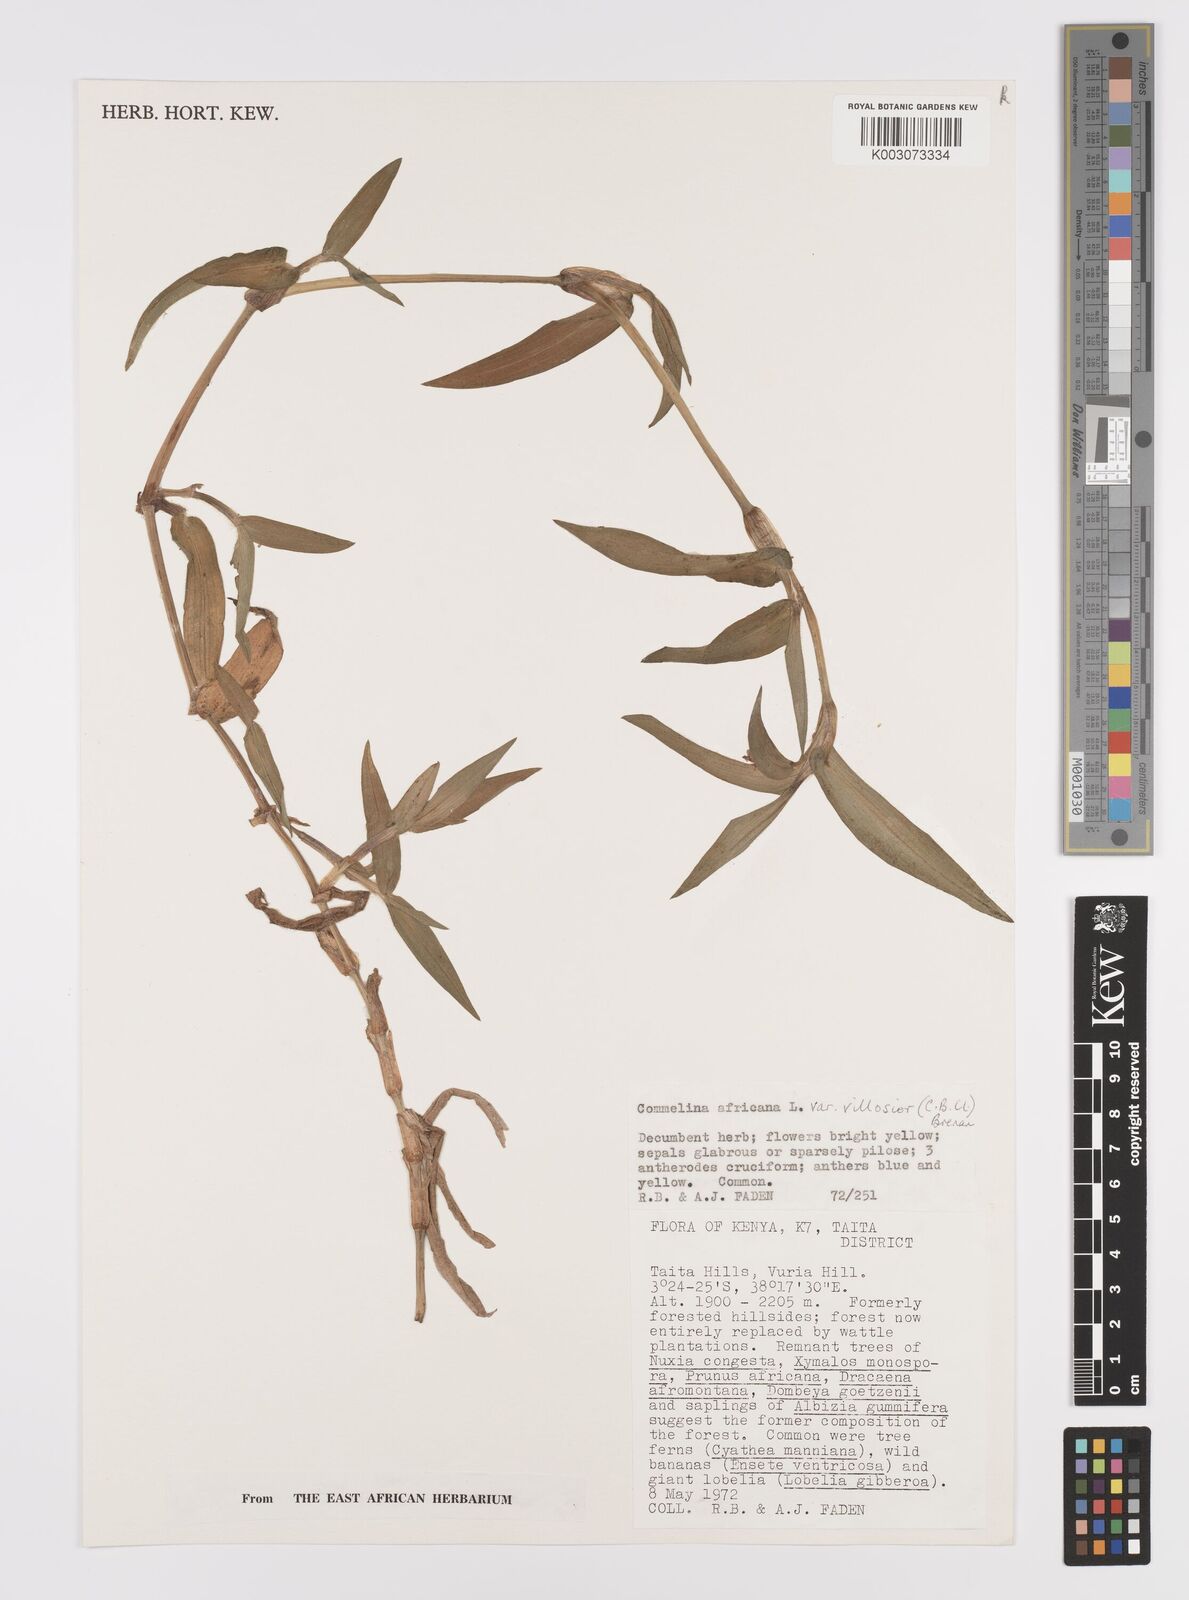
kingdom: Plantae
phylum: Tracheophyta
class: Liliopsida
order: Commelinales
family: Commelinaceae
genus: Commelina
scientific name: Commelina africana
